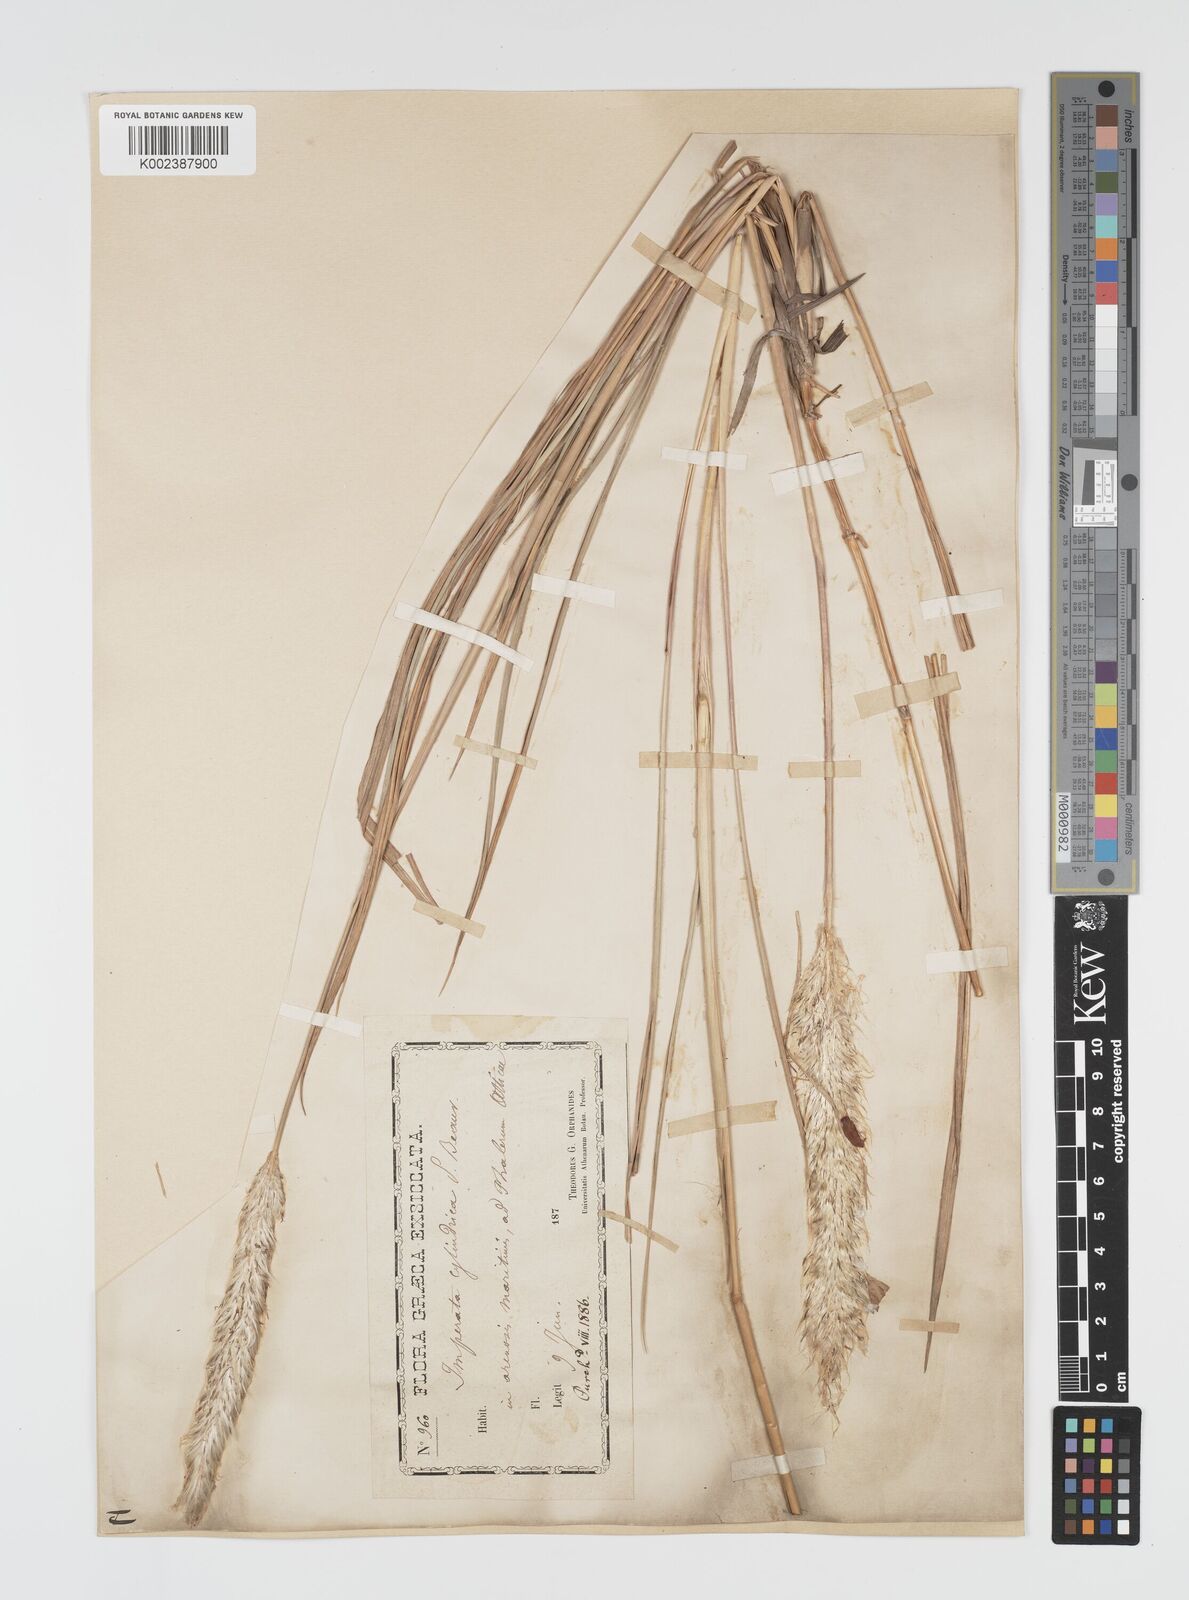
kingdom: Plantae
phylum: Tracheophyta
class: Liliopsida
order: Poales
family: Poaceae
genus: Imperata
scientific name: Imperata cylindrica
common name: Cogongrass
